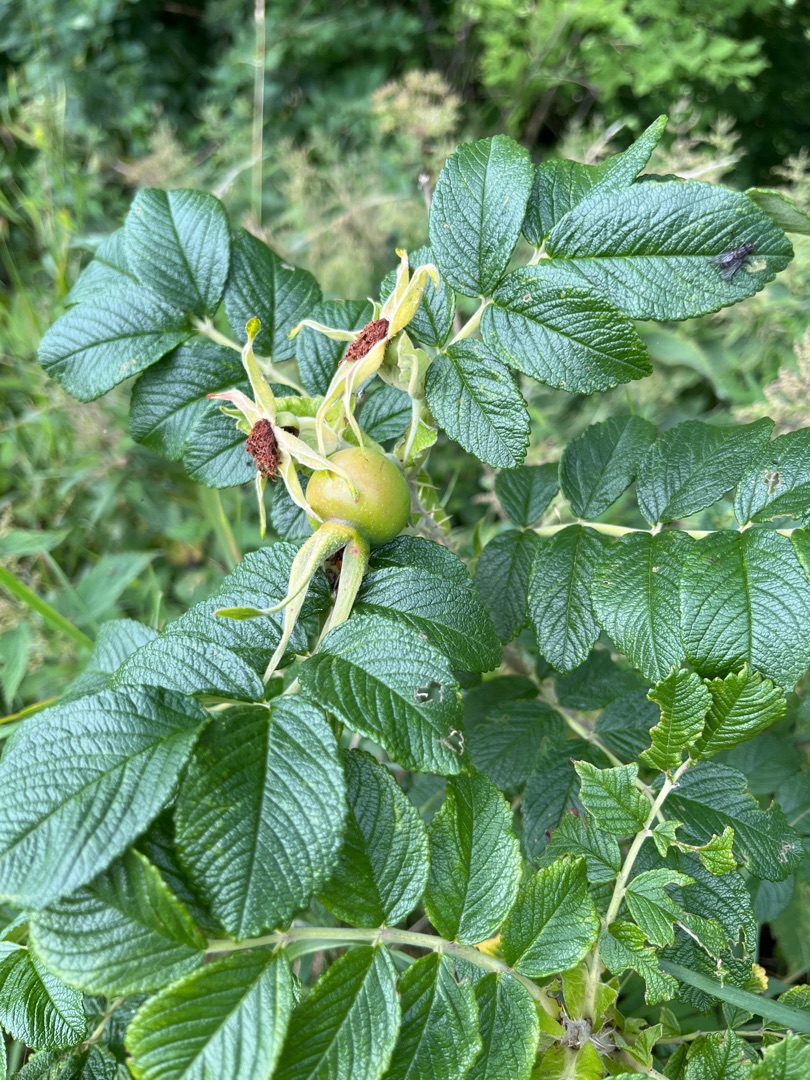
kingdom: Plantae
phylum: Tracheophyta
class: Magnoliopsida
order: Rosales
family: Rosaceae
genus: Rosa
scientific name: Rosa rugosa
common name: Rynket rose
